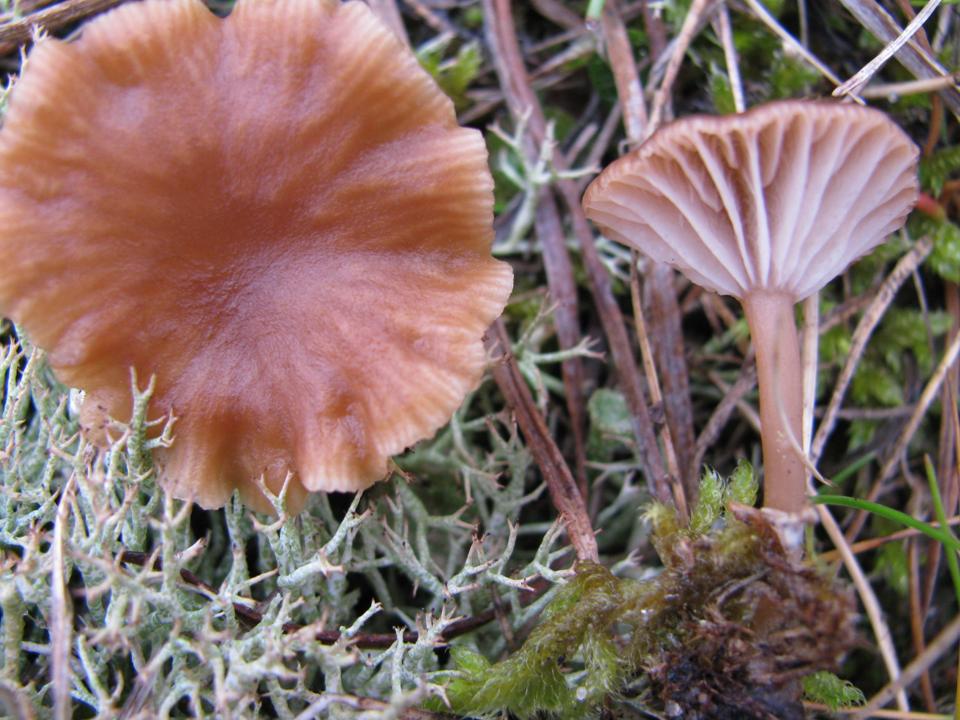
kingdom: Fungi
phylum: Basidiomycota
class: Agaricomycetes
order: Agaricales
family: Tricholomataceae
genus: Omphalina
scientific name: Omphalina pyxidata
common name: rødbrun navlehat
